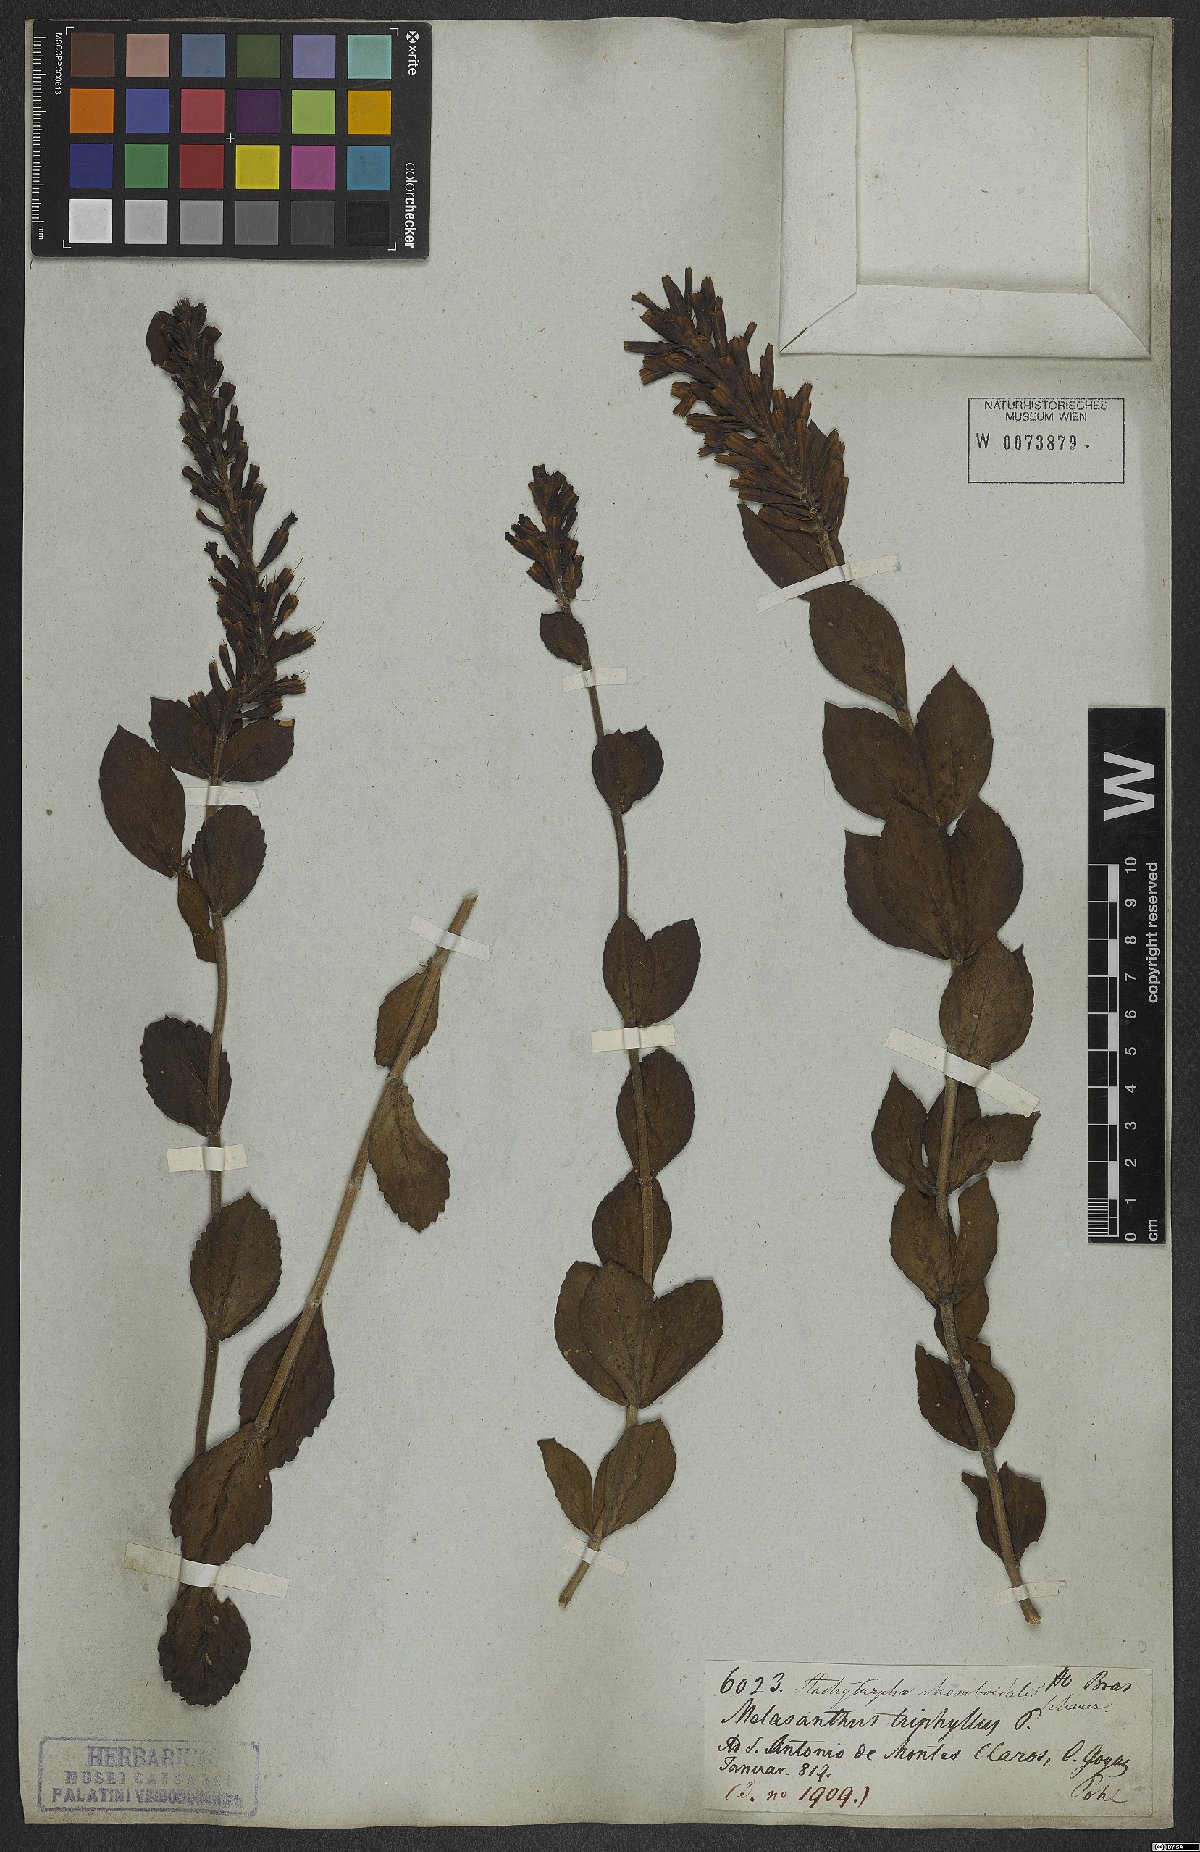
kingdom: Plantae
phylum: Tracheophyta
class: Magnoliopsida
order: Lamiales
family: Verbenaceae
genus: Stachytarpheta
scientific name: Stachytarpheta rhomboidalis
